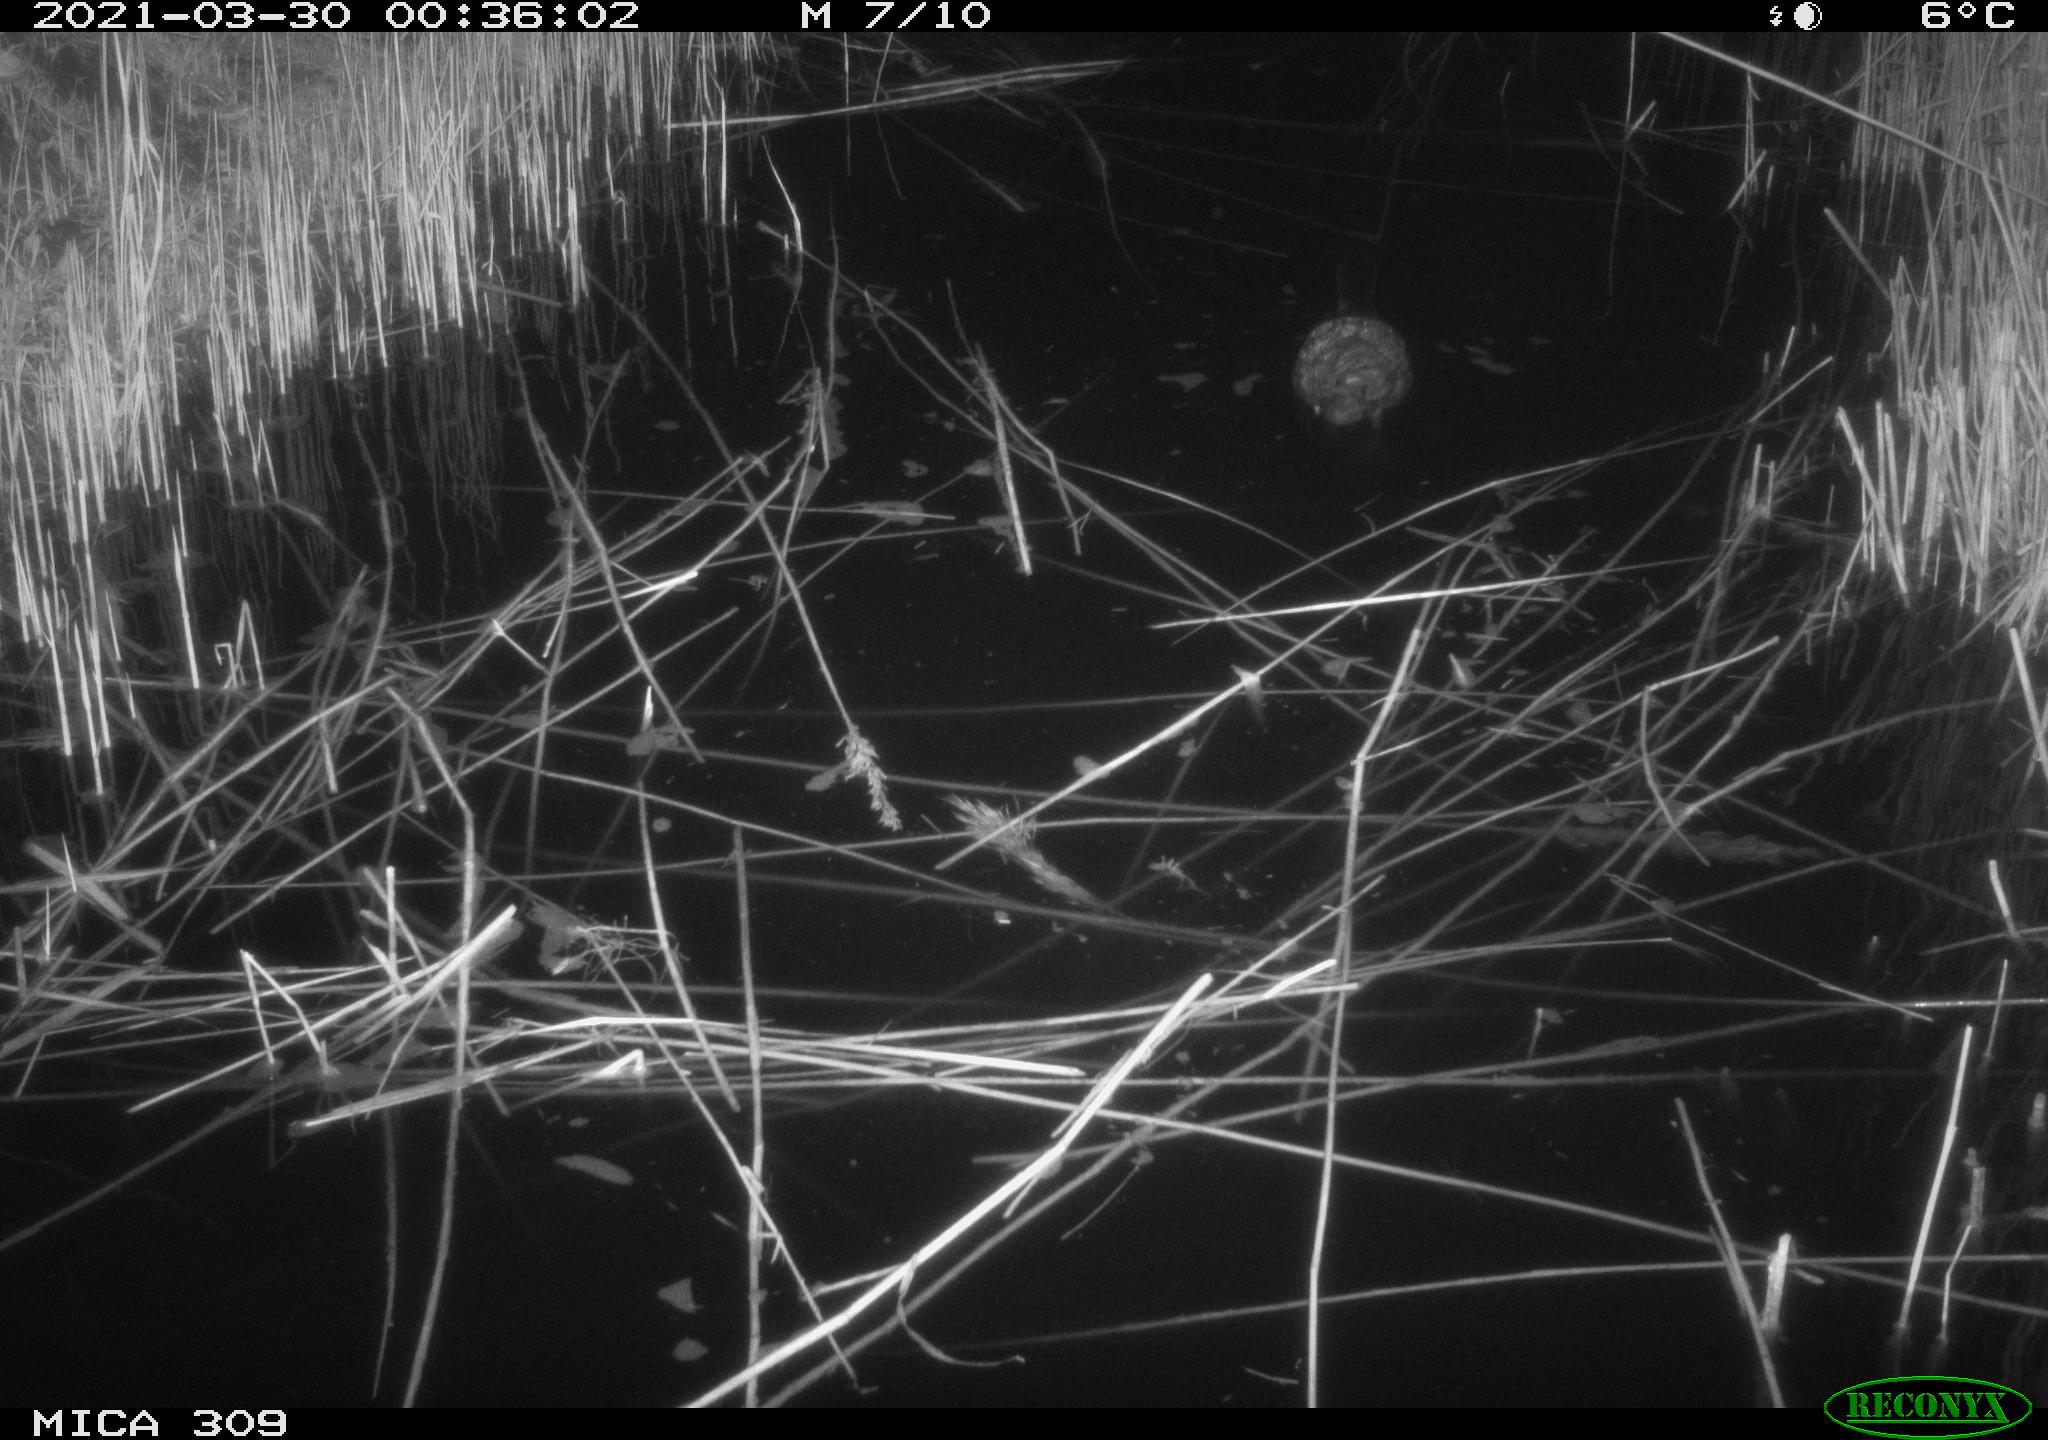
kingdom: Animalia
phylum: Chordata
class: Aves
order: Gruiformes
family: Rallidae
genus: Fulica
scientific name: Fulica atra
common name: Eurasian coot
